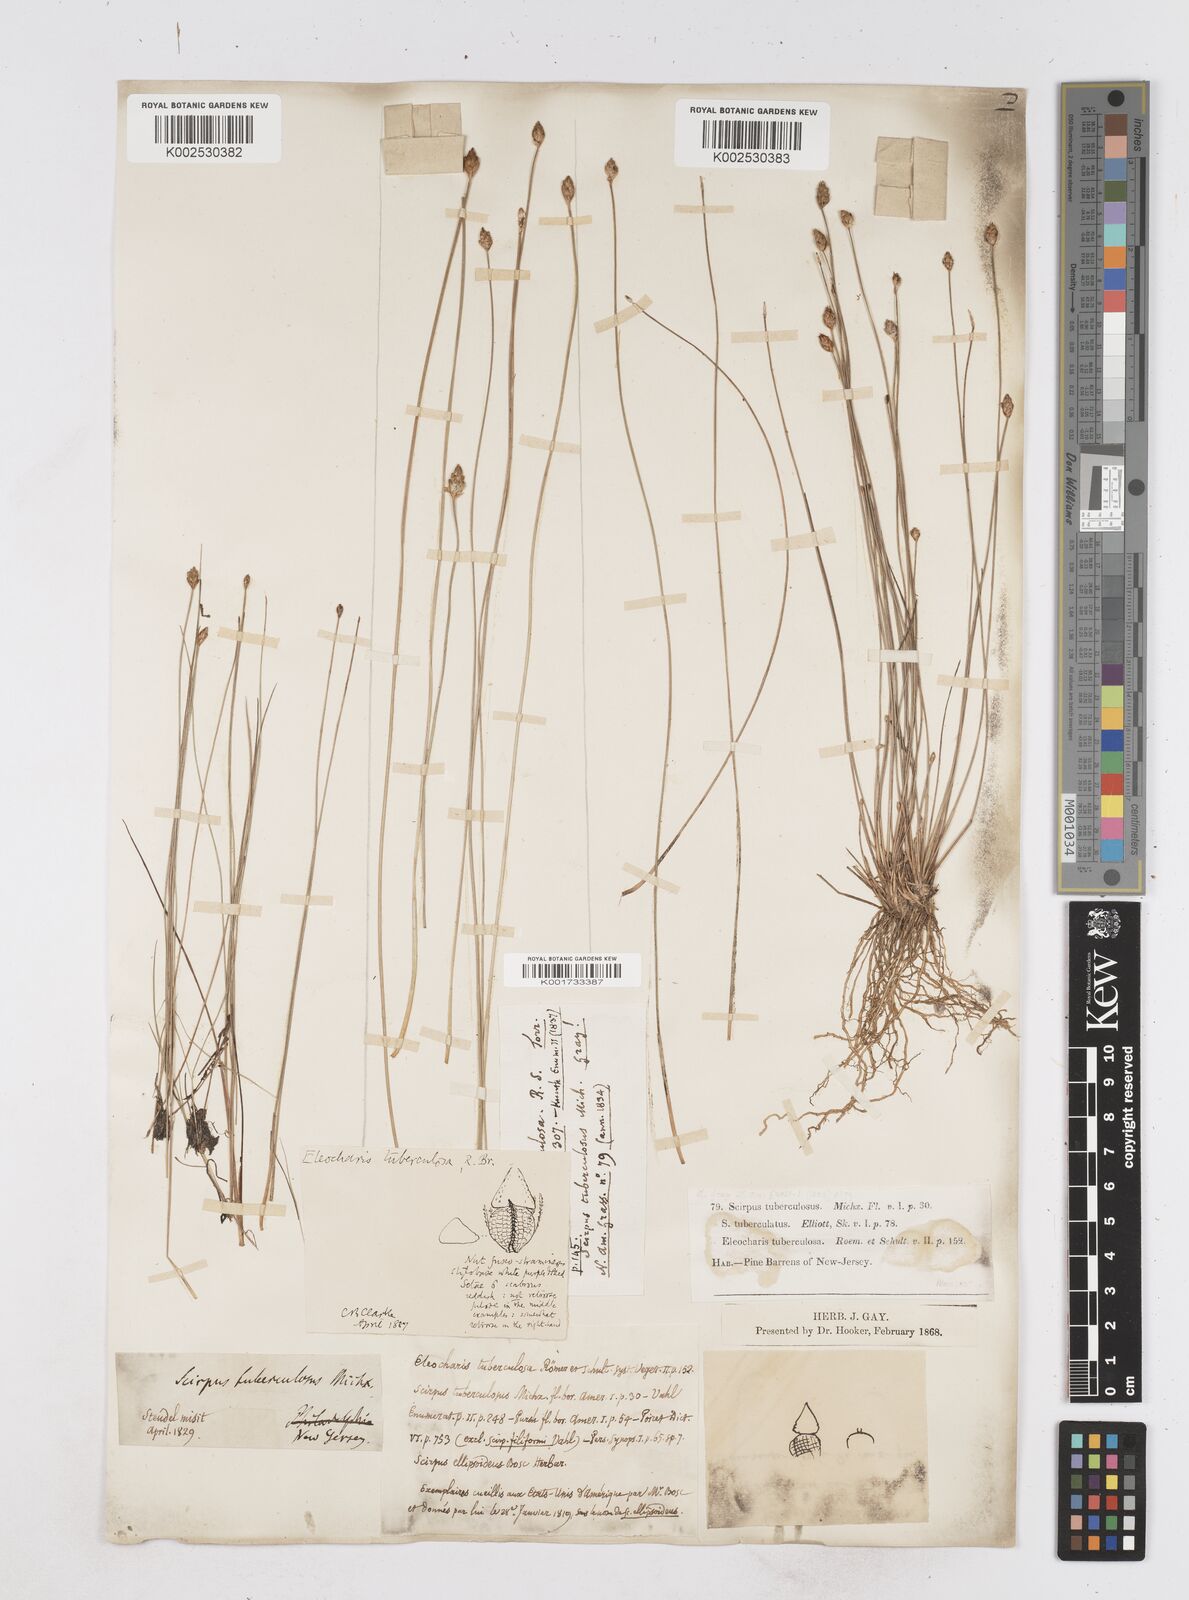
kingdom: Plantae
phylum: Tracheophyta
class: Liliopsida
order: Poales
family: Cyperaceae
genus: Eleocharis
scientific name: Eleocharis tuberculosa
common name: Cone-cup spikerush
